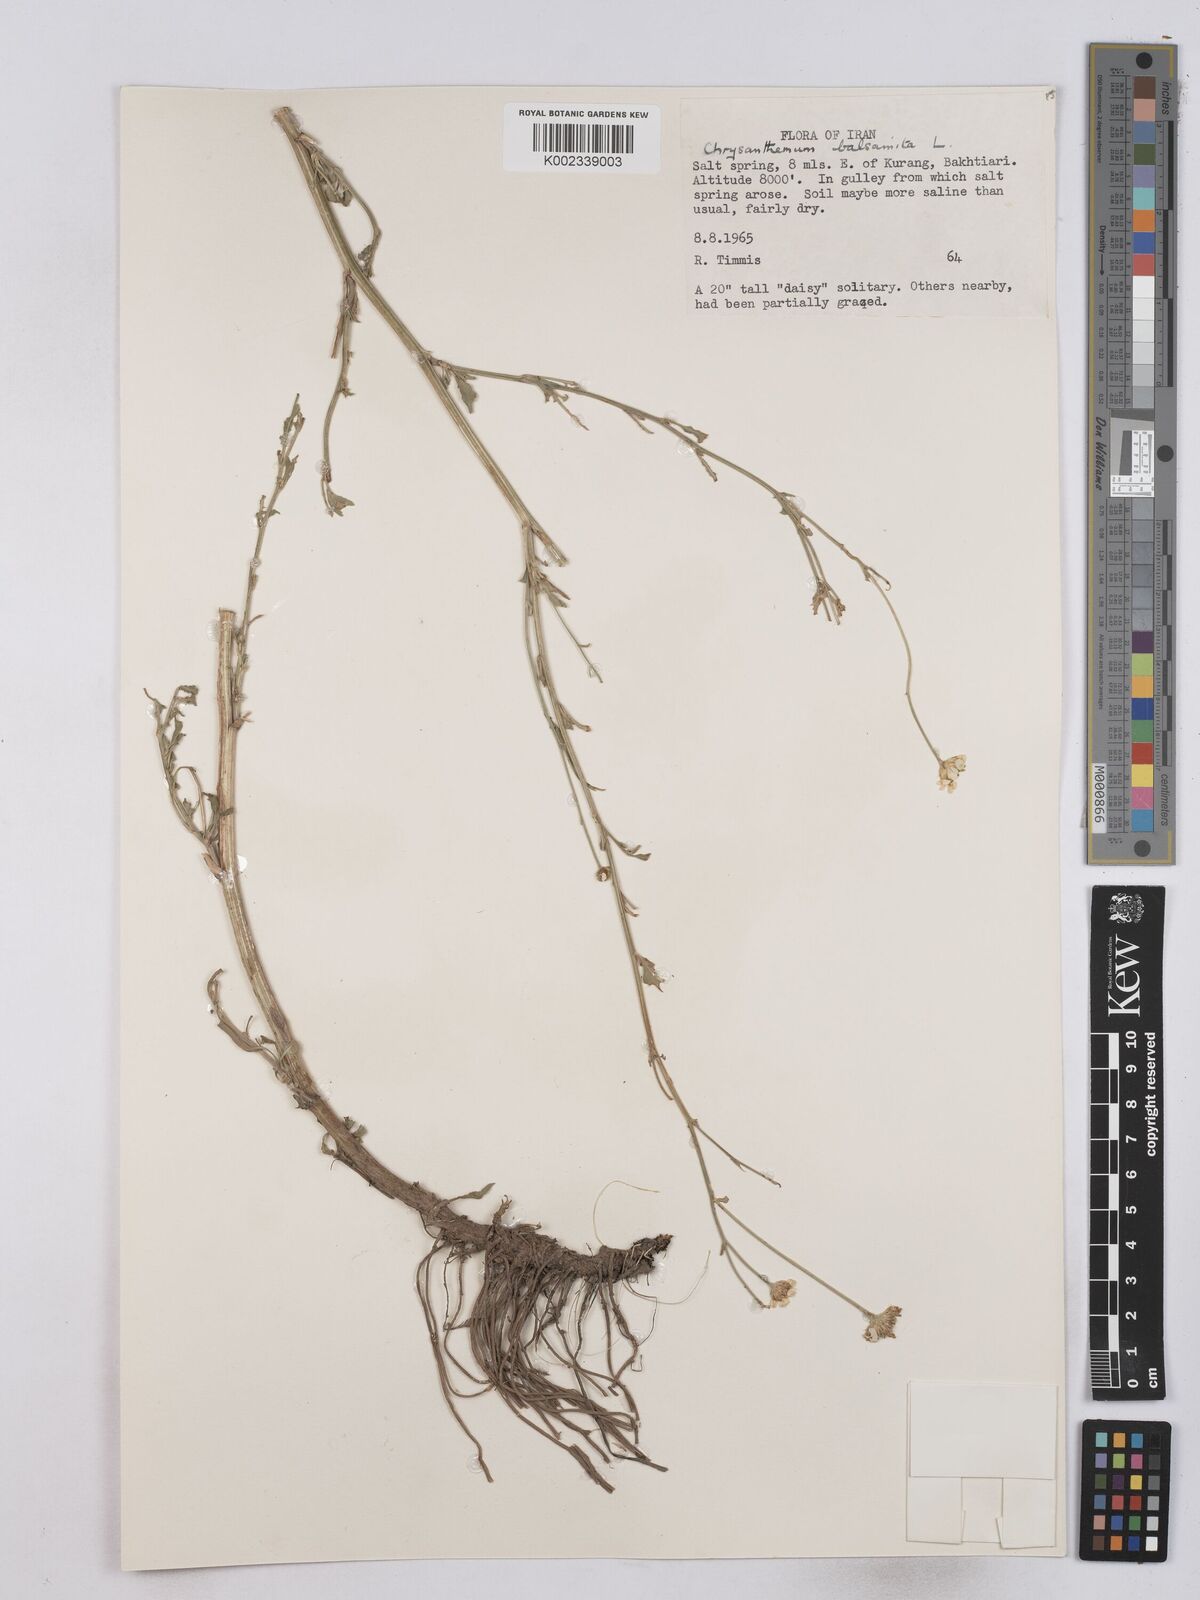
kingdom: Plantae
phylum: Tracheophyta
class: Magnoliopsida
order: Asterales
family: Asteraceae
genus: Tanacetum
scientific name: Tanacetum balsamita
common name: Costmary
